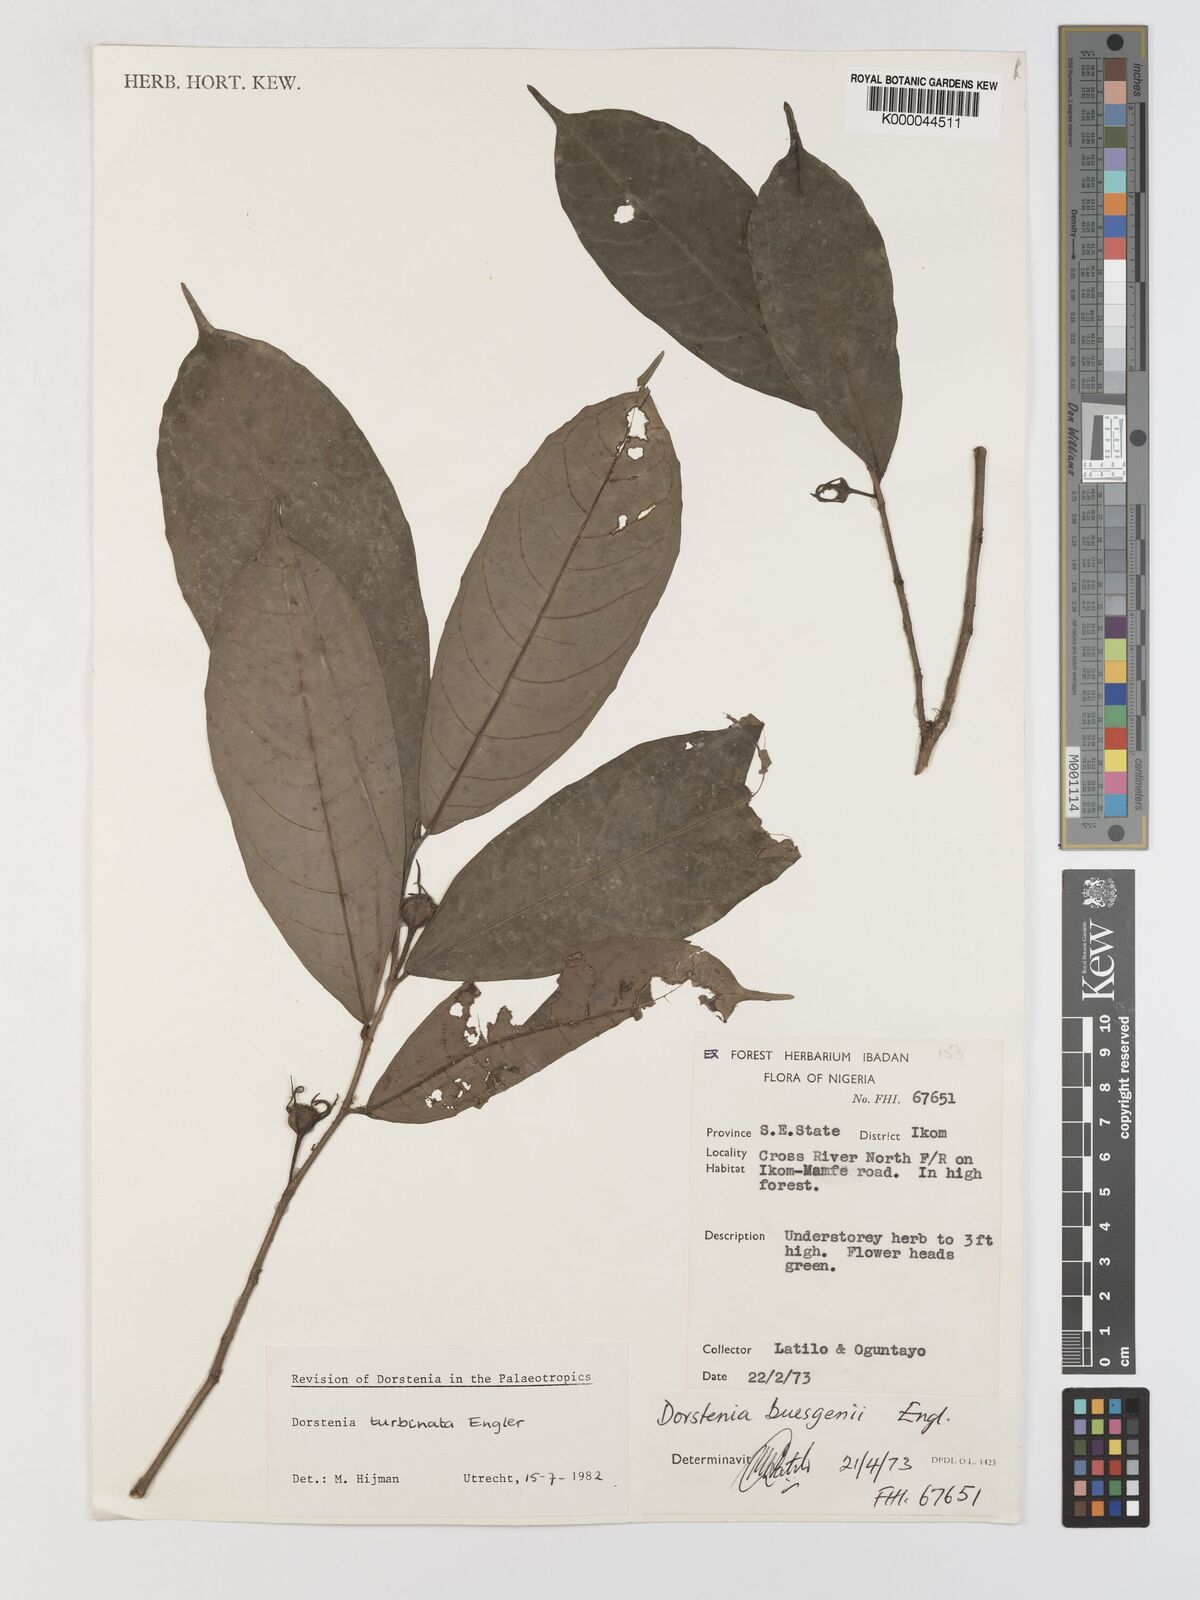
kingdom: Plantae
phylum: Tracheophyta
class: Magnoliopsida
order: Rosales
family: Moraceae
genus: Hijmania
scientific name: Hijmania turbinata
